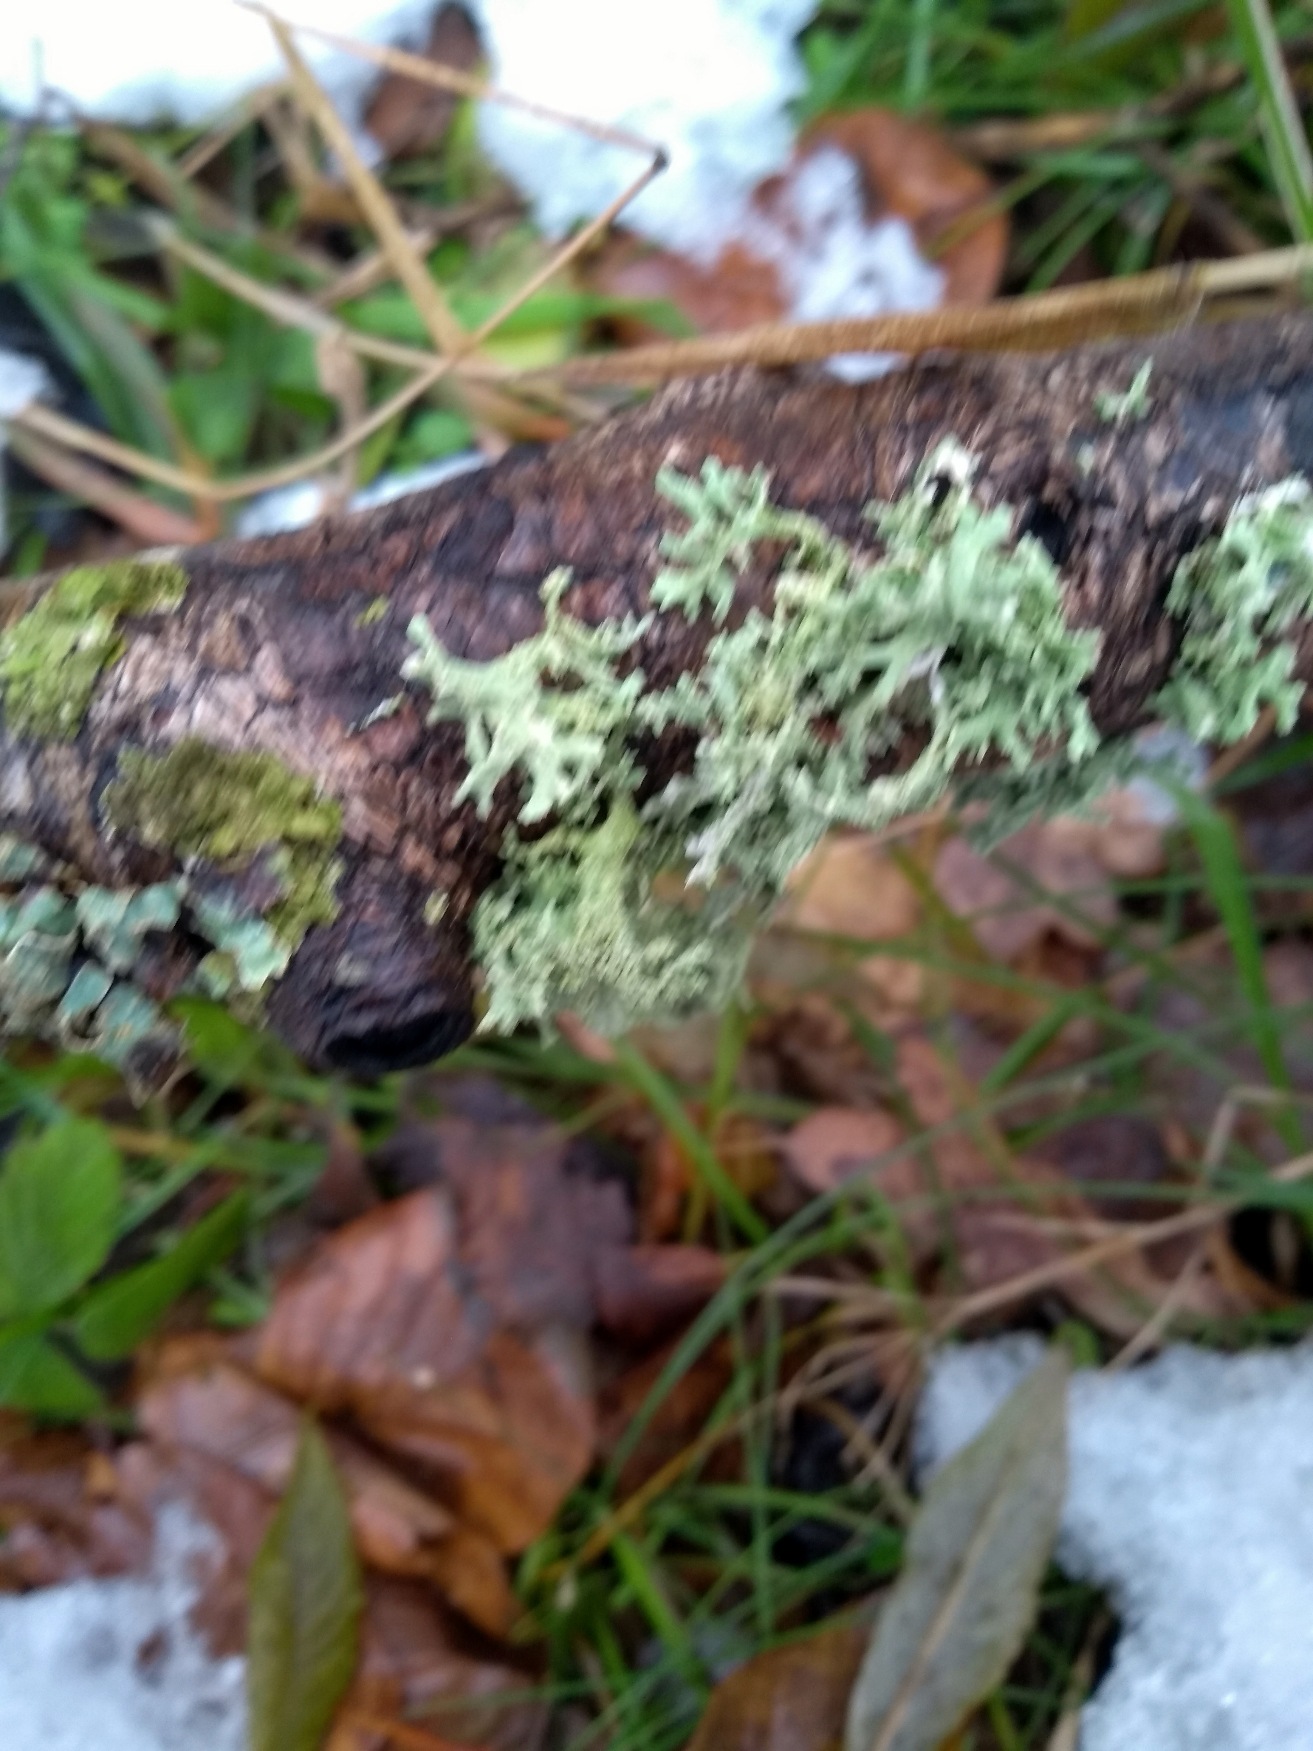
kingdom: Fungi
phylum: Ascomycota
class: Lecanoromycetes
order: Lecanorales
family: Parmeliaceae
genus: Evernia
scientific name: Evernia prunastri
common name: Almindelig slåenlav
